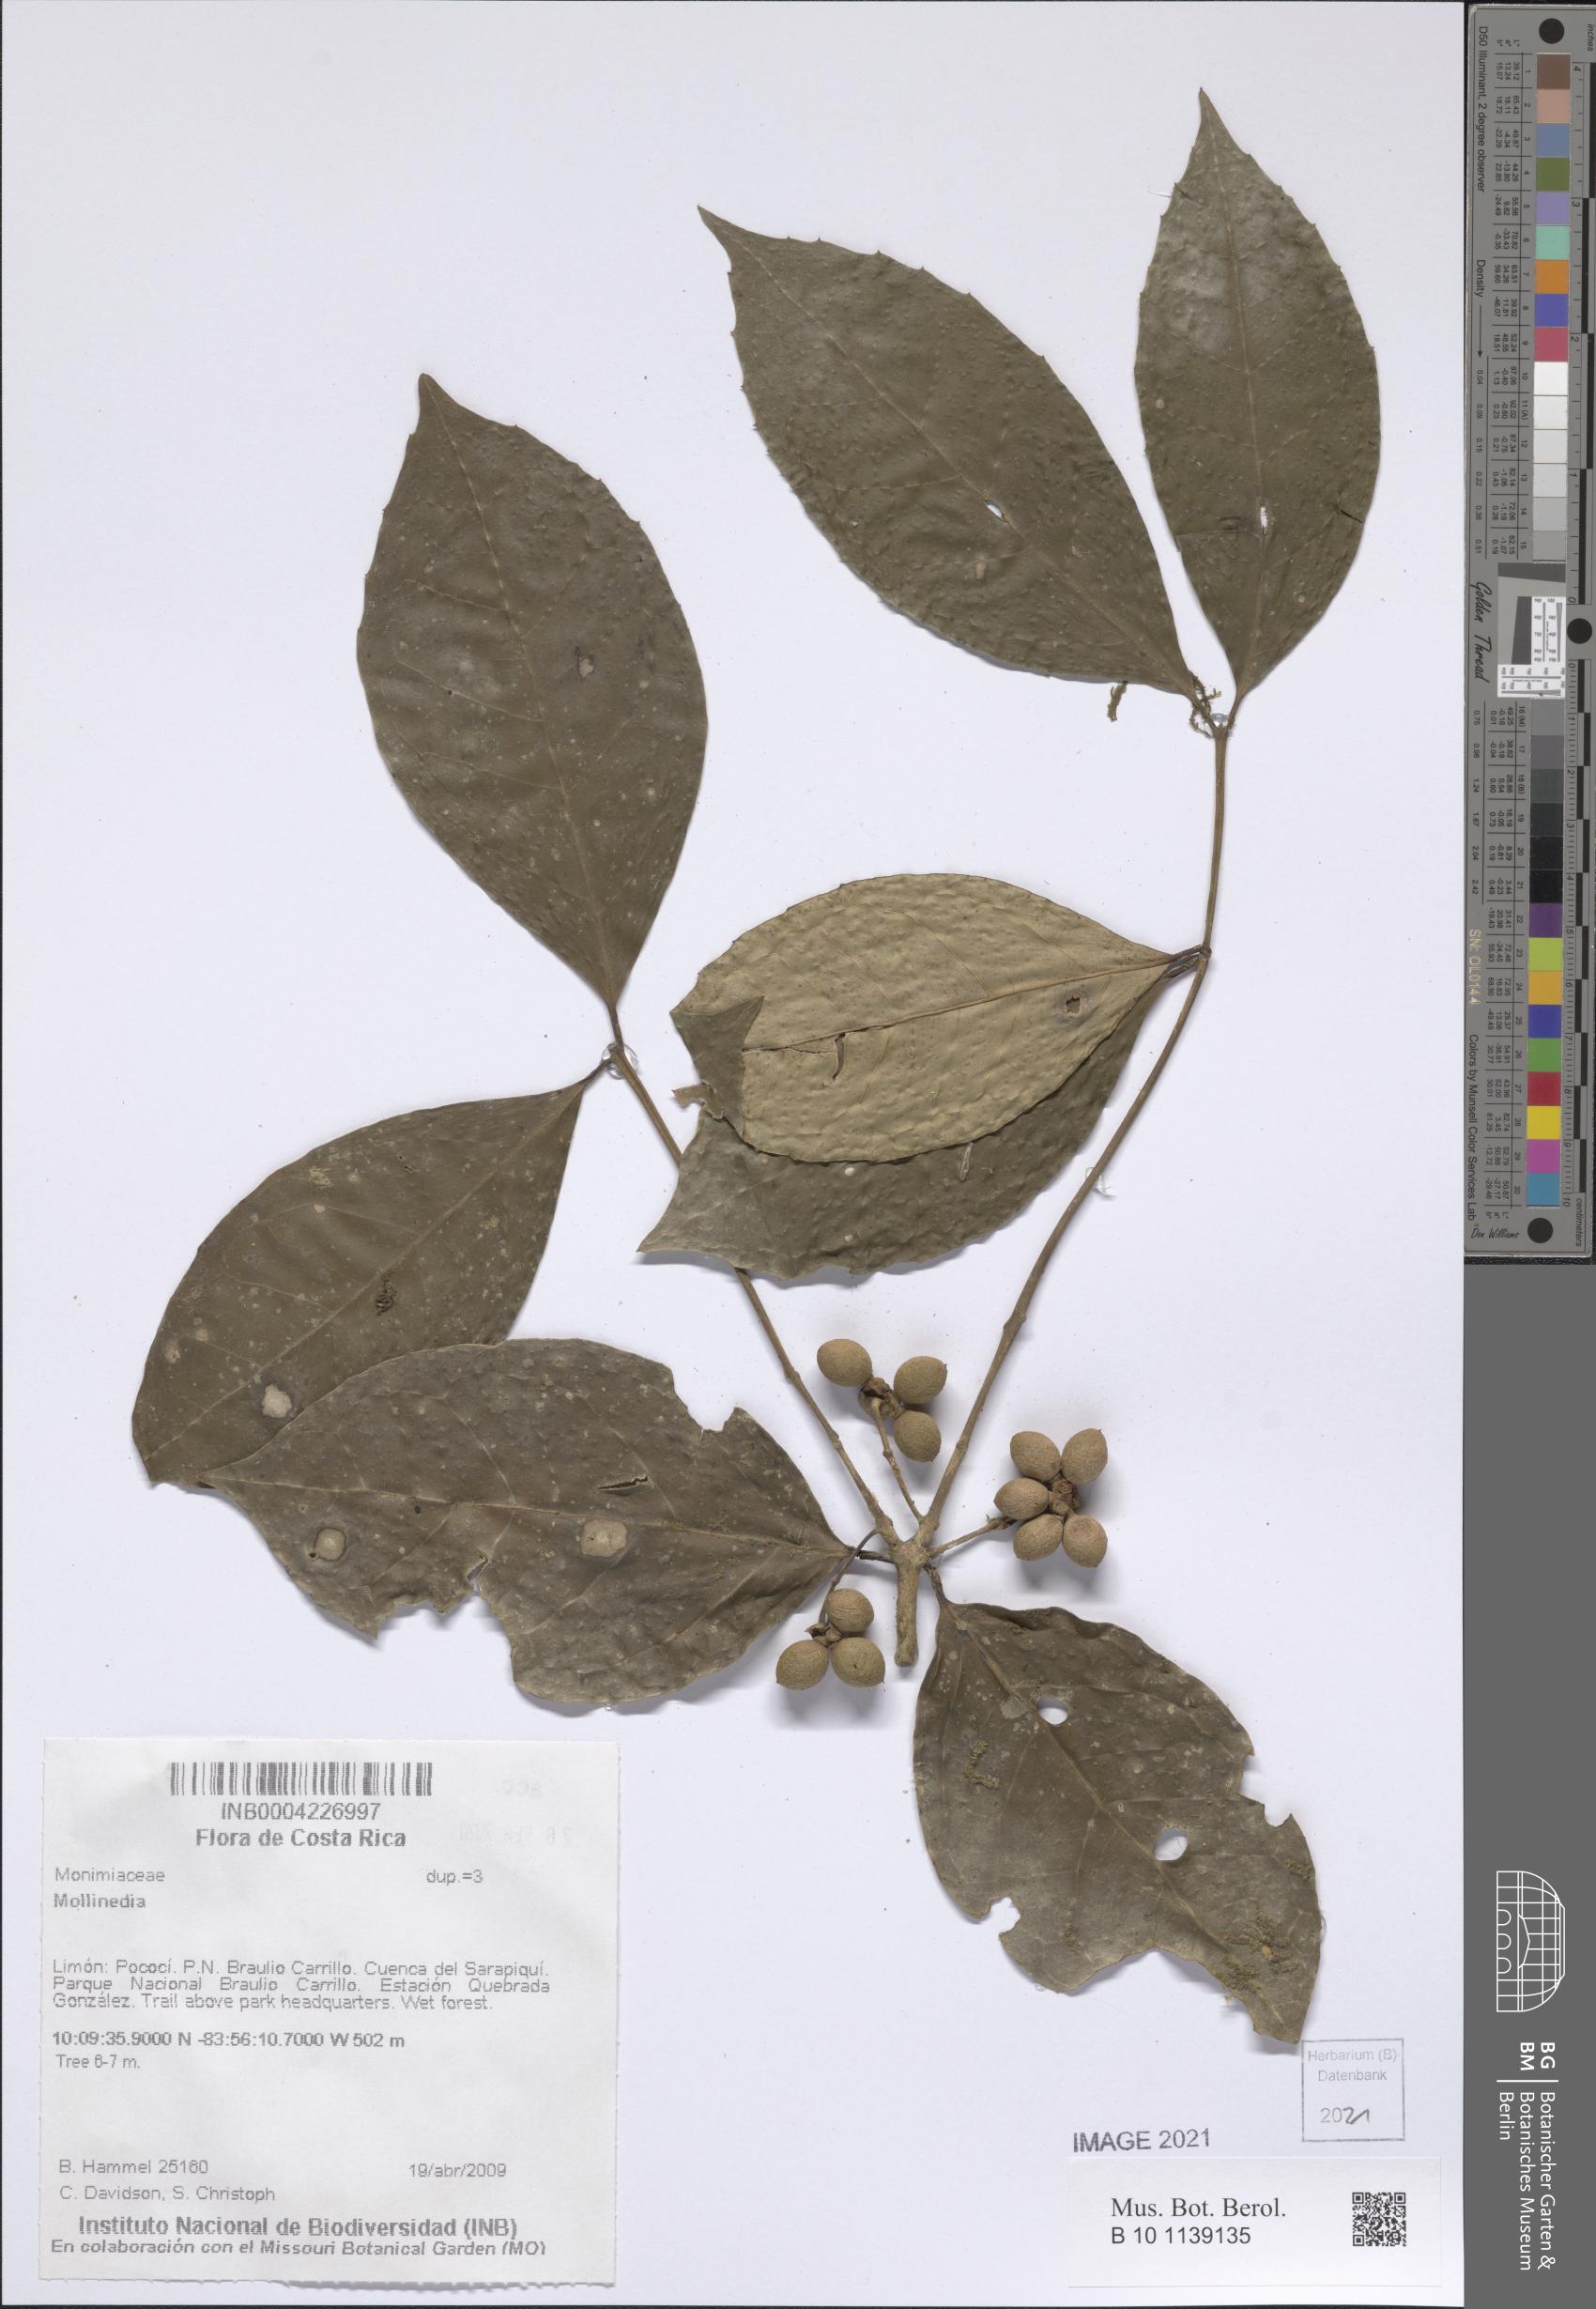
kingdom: Plantae
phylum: Tracheophyta
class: Magnoliopsida
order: Laurales
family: Monimiaceae
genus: Mollinedia
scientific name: Mollinedia viridiflora
